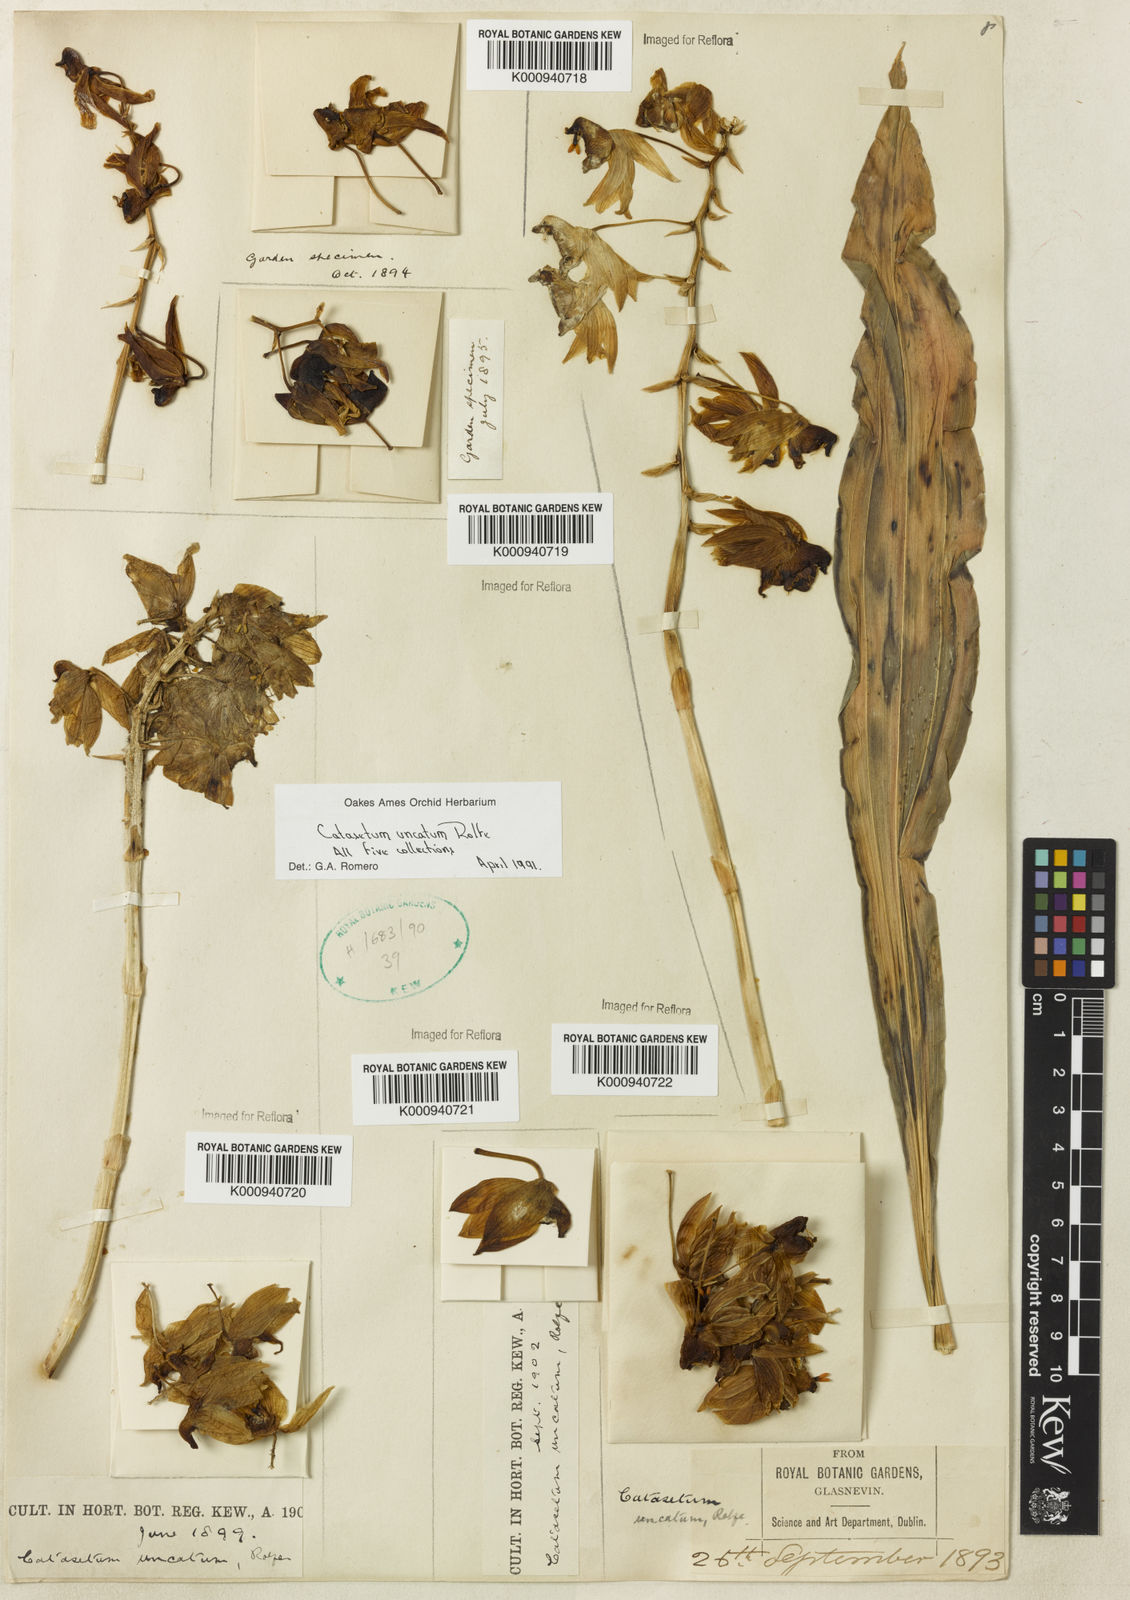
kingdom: Plantae
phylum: Tracheophyta
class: Liliopsida
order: Asparagales
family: Orchidaceae
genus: Catasetum
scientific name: Catasetum uncatum
